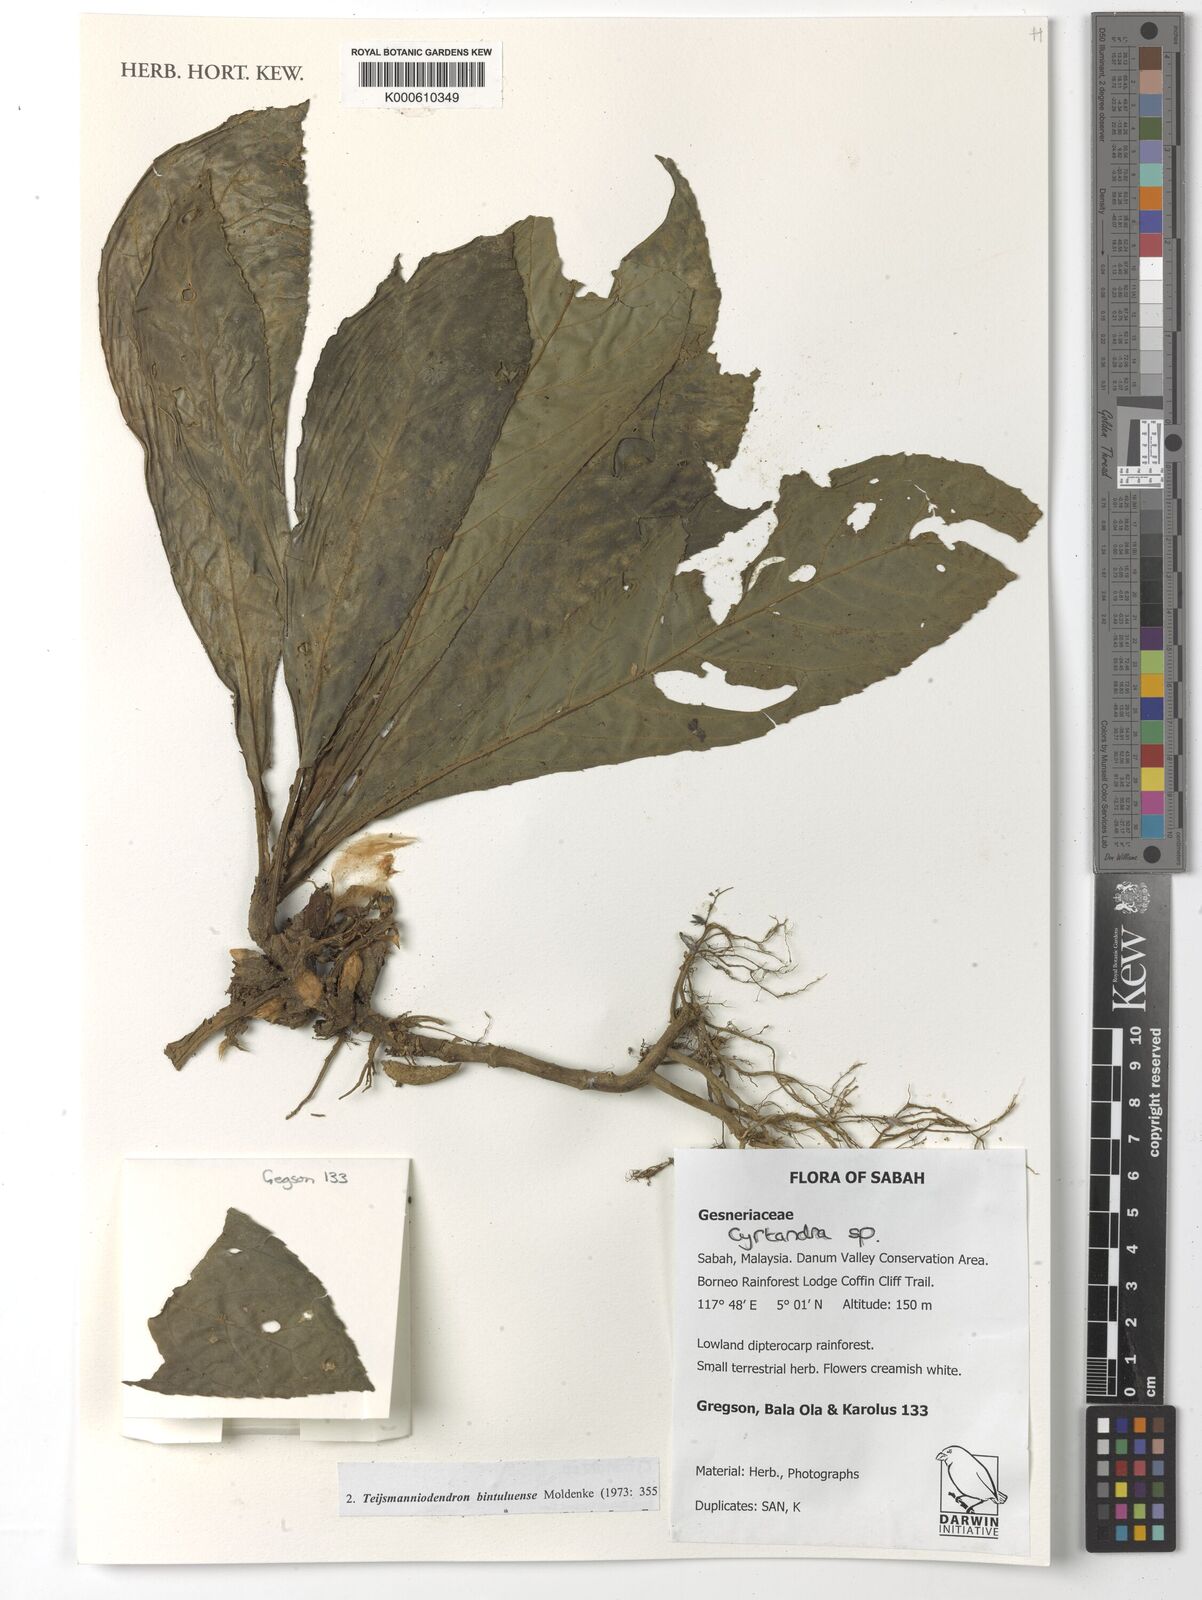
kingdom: Plantae
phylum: Tracheophyta
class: Magnoliopsida
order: Lamiales
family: Gesneriaceae
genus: Cyrtandra
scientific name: Cyrtandra
